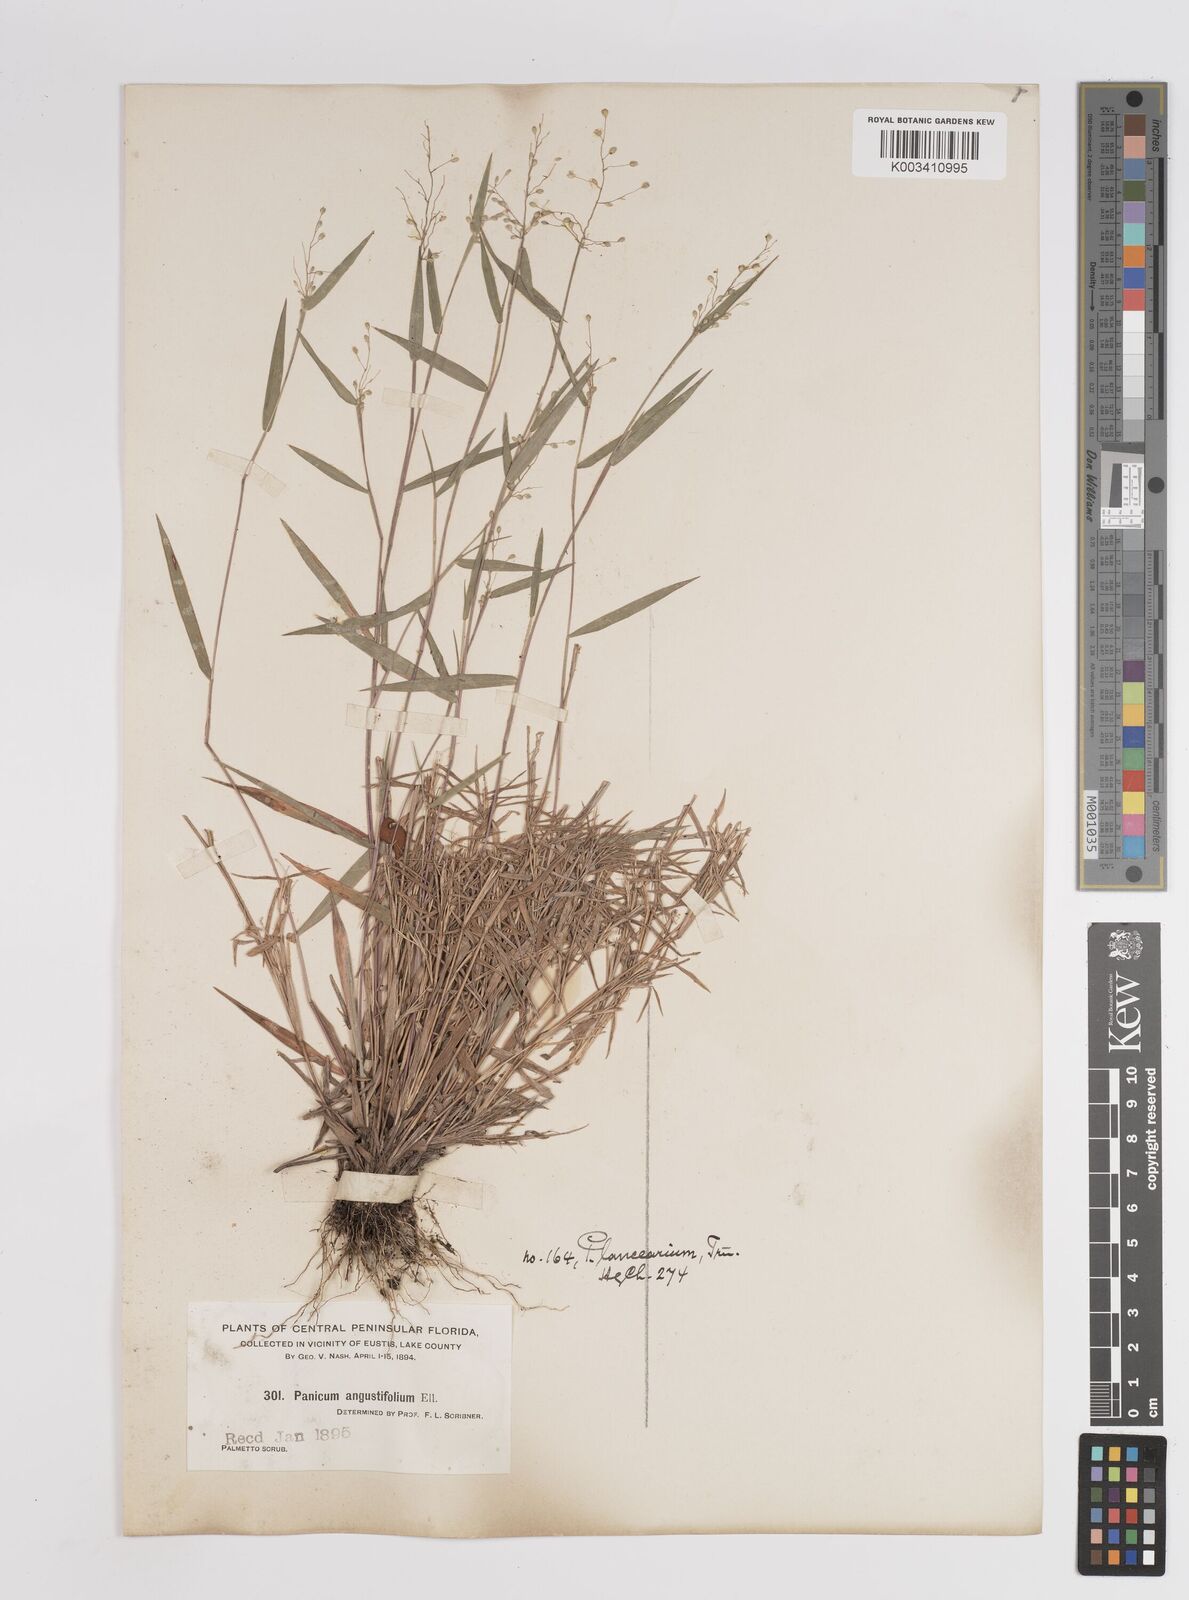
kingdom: Plantae
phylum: Tracheophyta
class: Liliopsida
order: Poales
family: Poaceae
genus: Dichanthelium
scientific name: Dichanthelium portoricense
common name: American panicgrass
